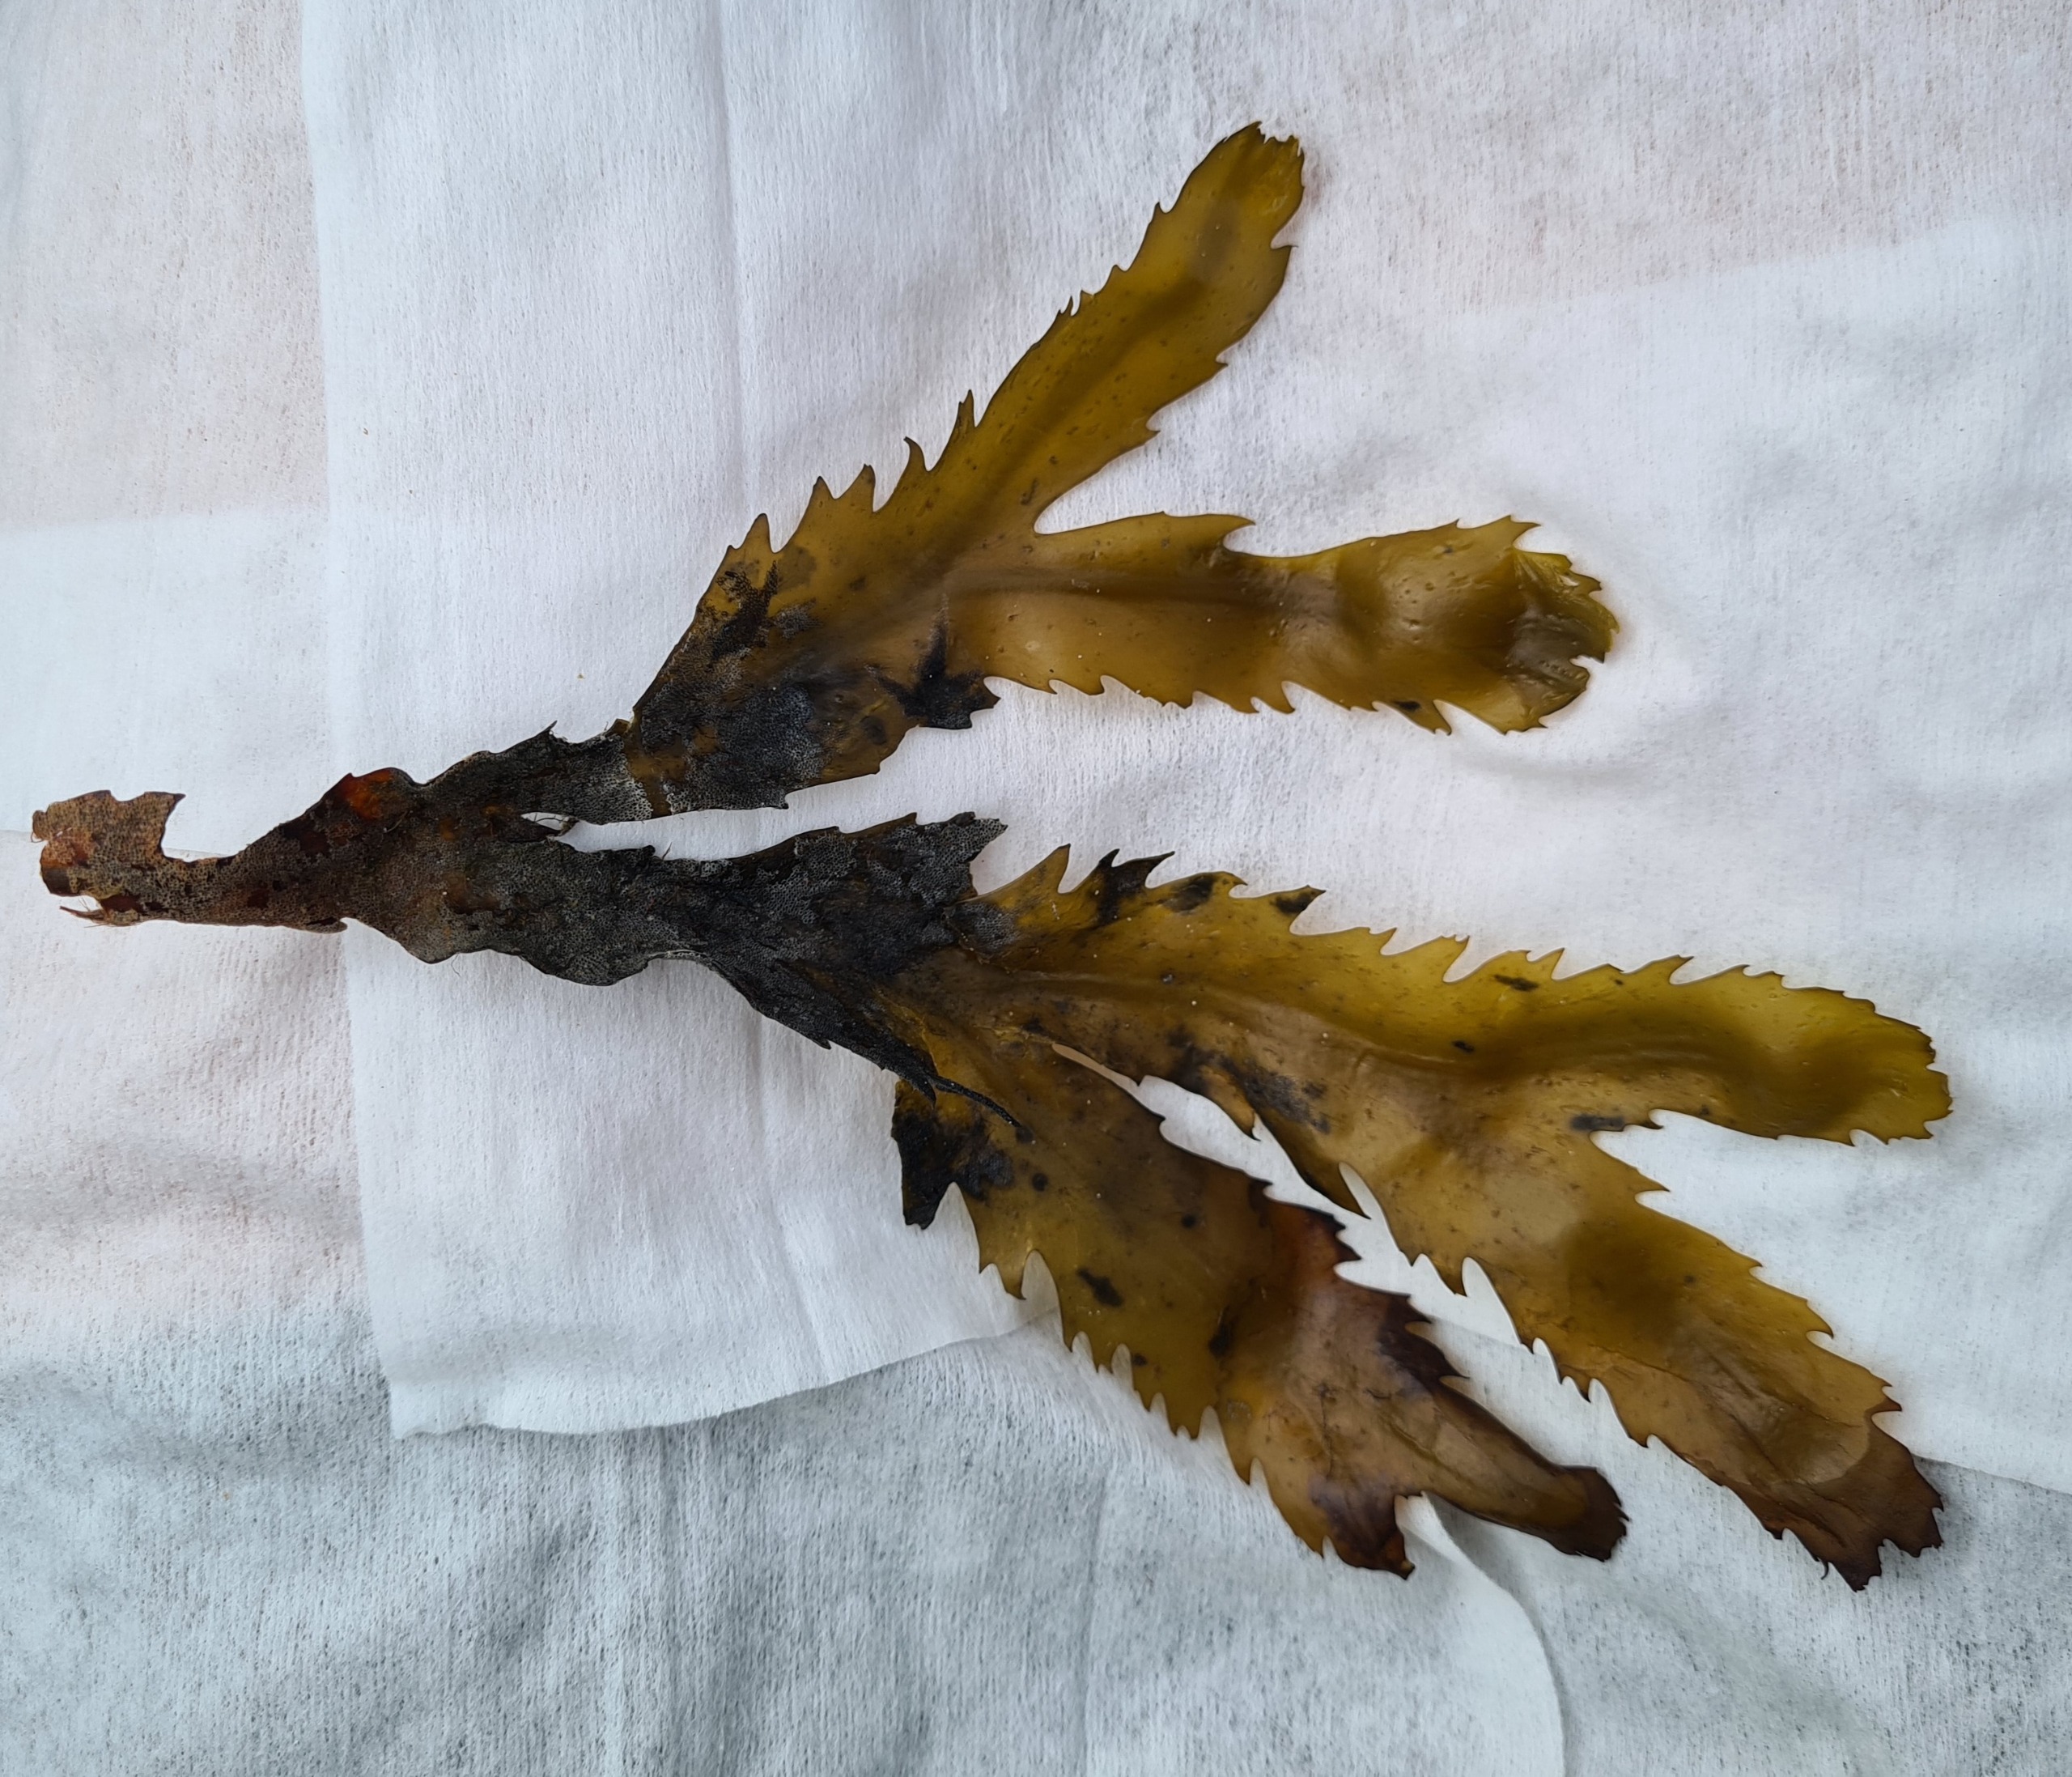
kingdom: Chromista
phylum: Ochrophyta
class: Phaeophyceae
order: Fucales
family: Fucaceae
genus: Fucus
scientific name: Fucus serratus
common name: Savtang
